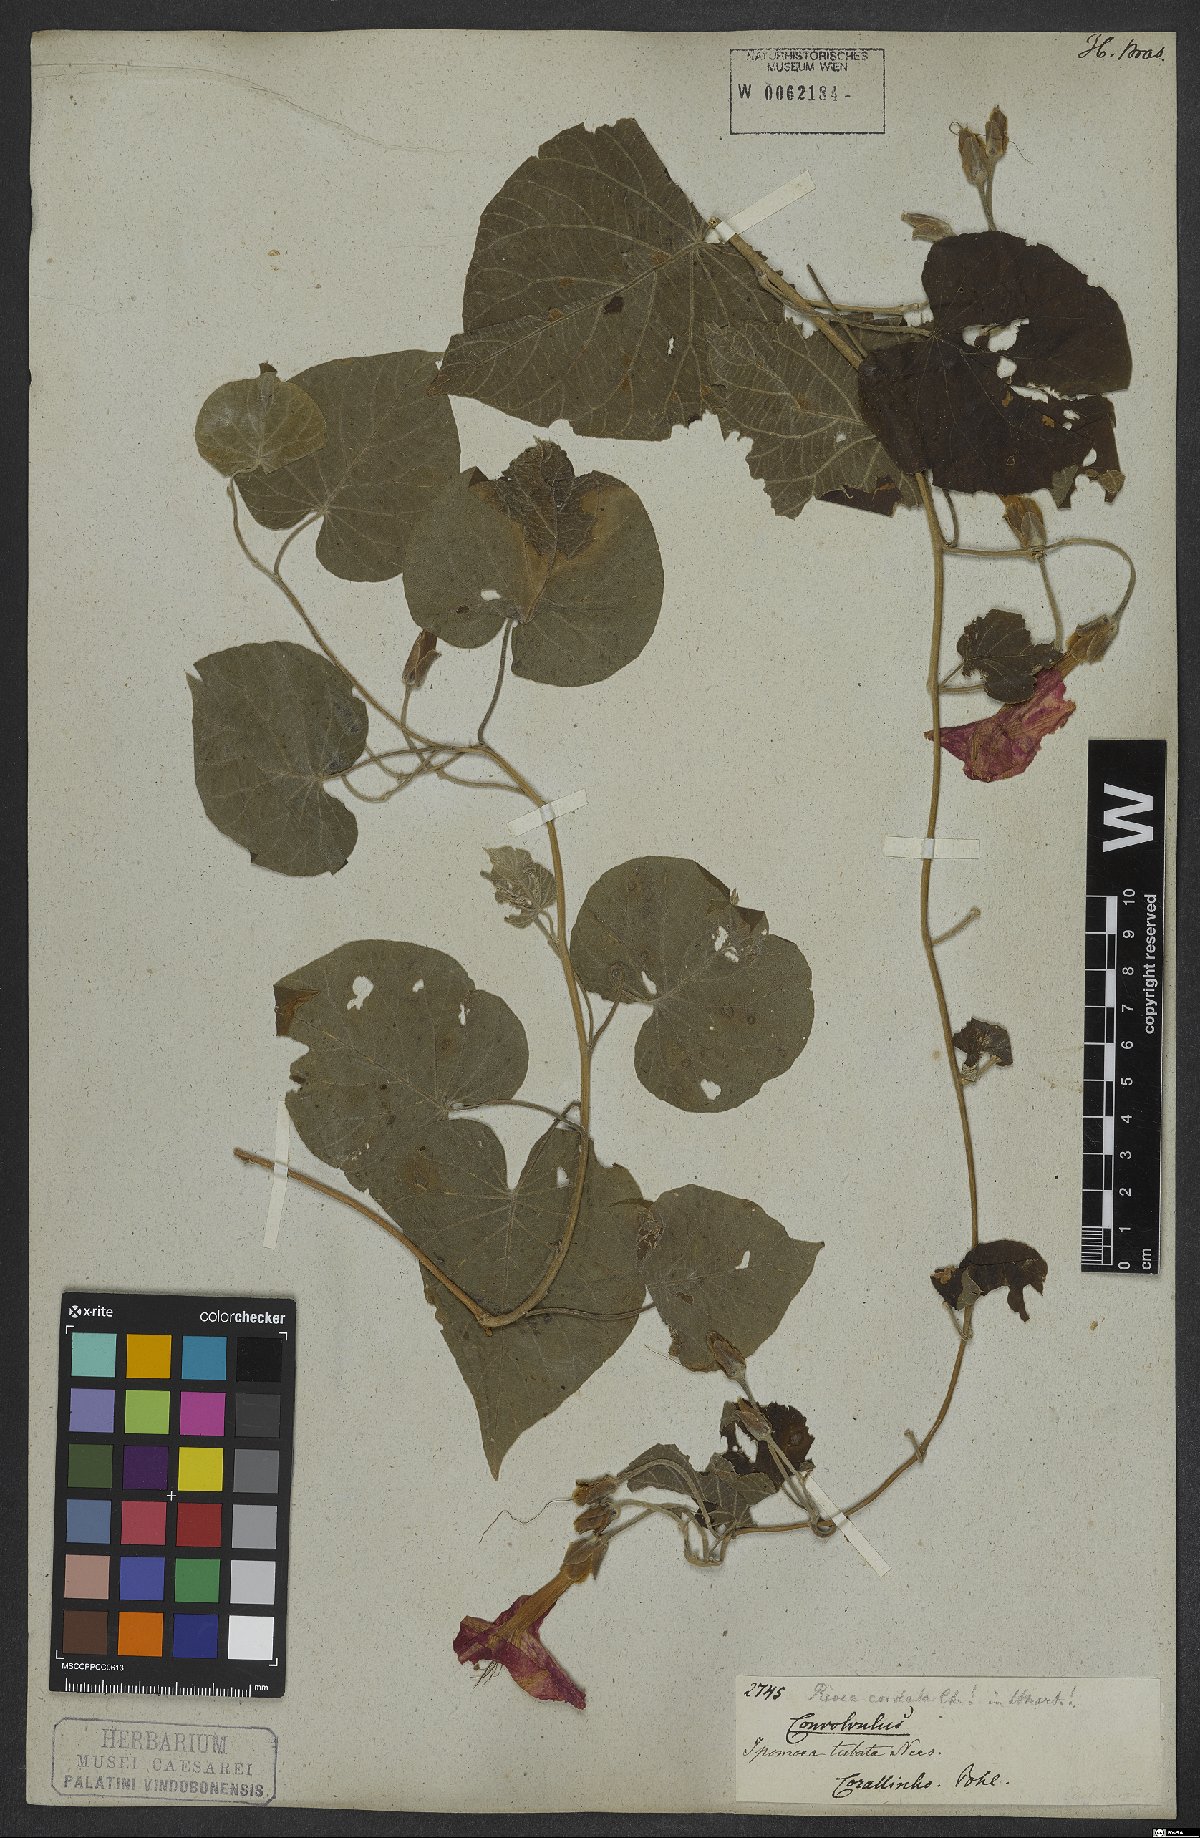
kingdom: Plantae
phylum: Tracheophyta
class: Magnoliopsida
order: Solanales
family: Convolvulaceae
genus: Ipomoea
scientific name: Ipomoea sidifolia
